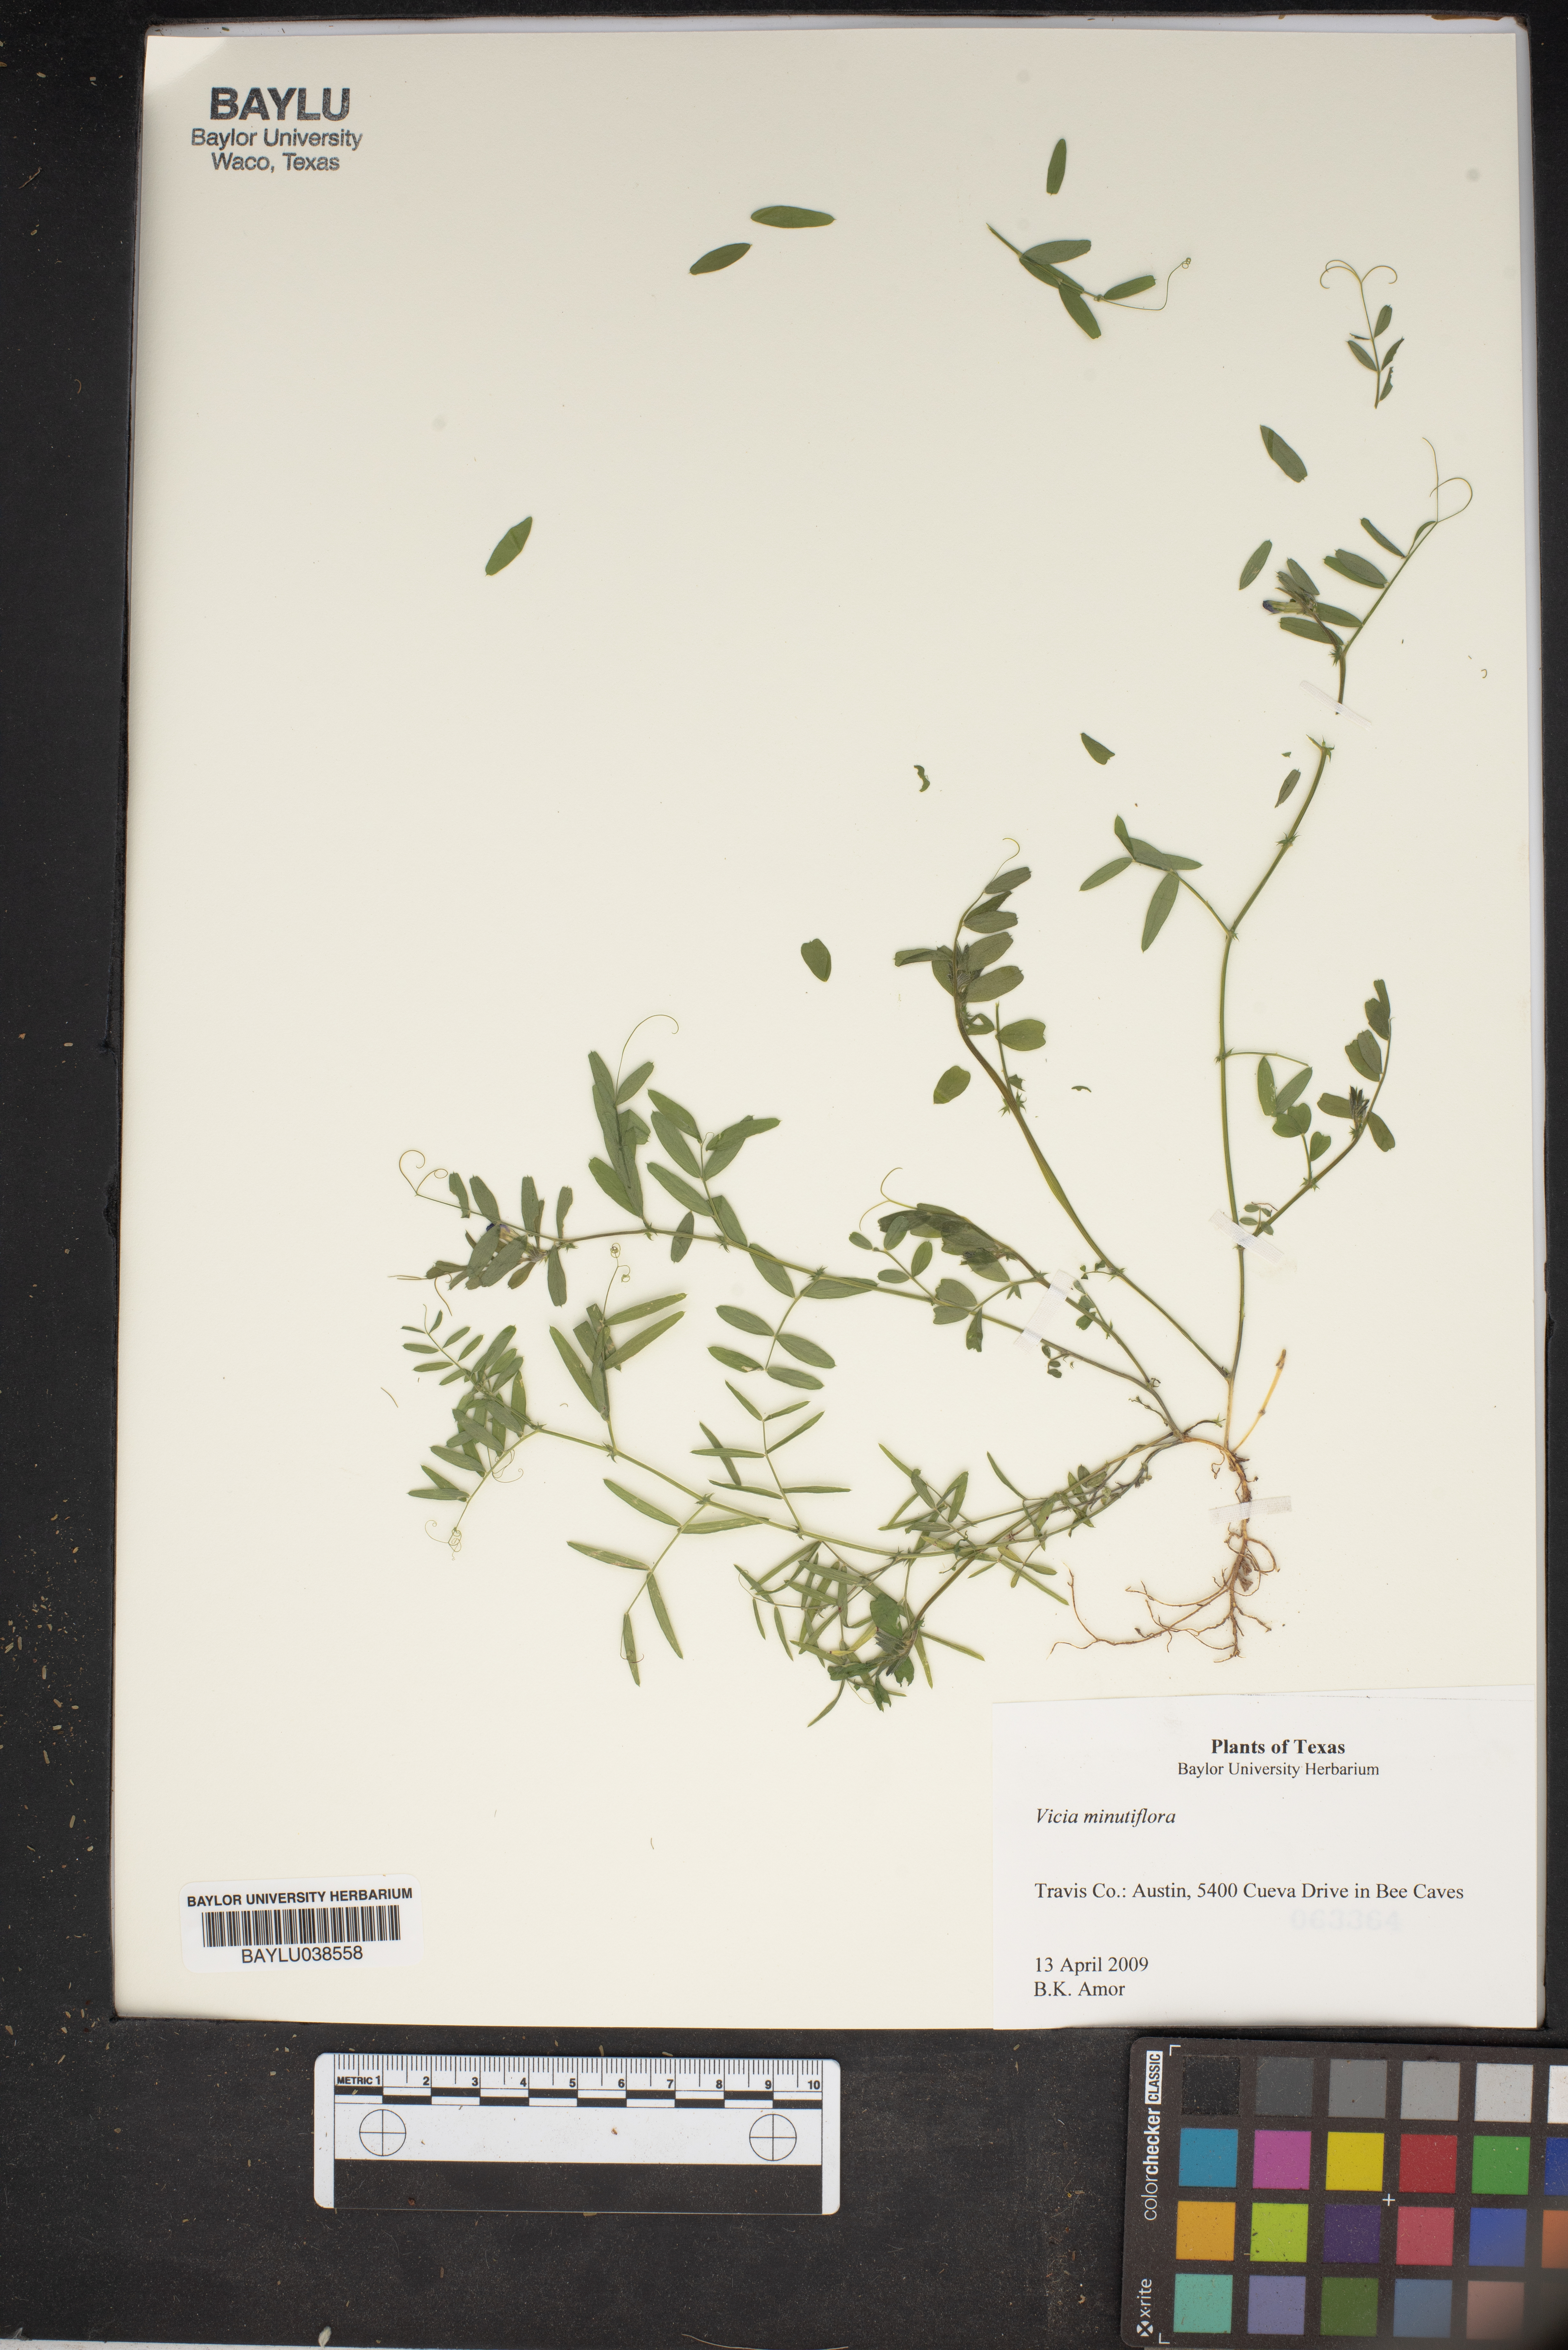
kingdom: Plantae
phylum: Tracheophyta
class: Magnoliopsida
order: Fabales
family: Fabaceae
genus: Vicia
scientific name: Vicia minutiflora
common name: Pygmy-flower vetch
